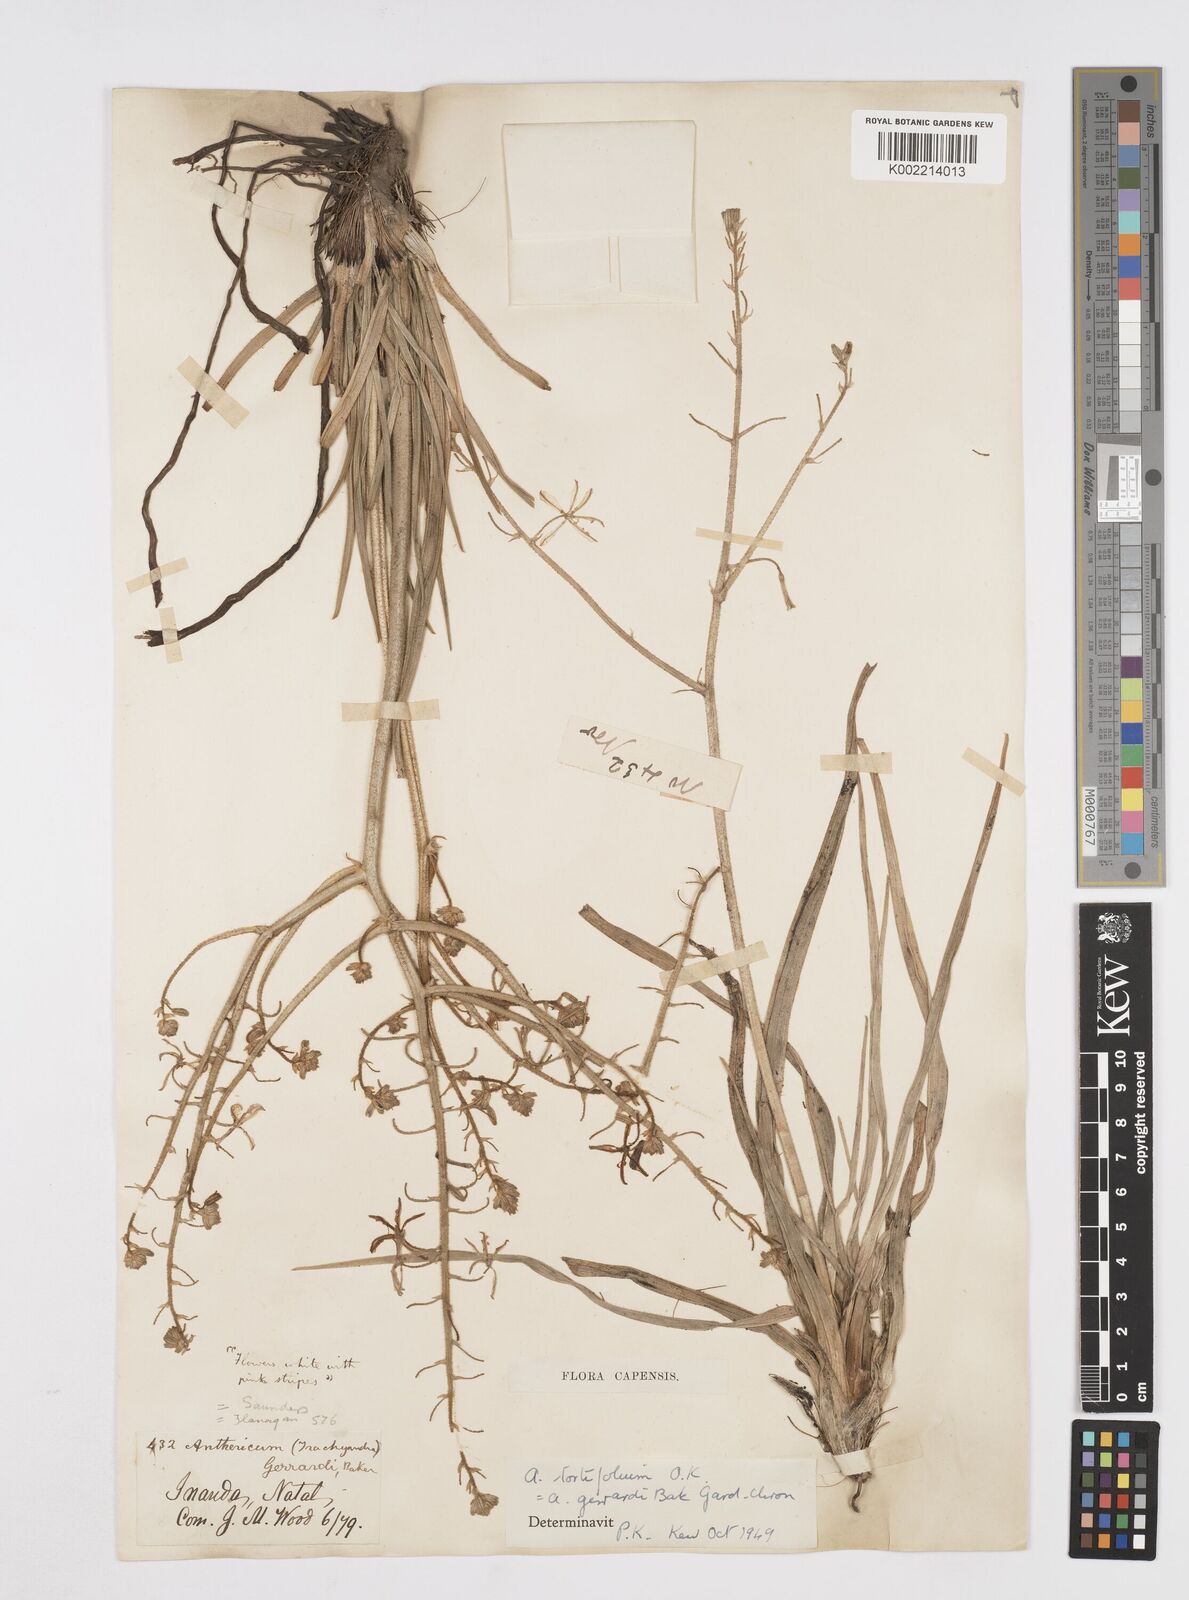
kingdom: Plantae
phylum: Tracheophyta
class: Liliopsida
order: Asparagales
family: Asphodelaceae
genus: Trachyandra
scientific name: Trachyandra gerrardii
